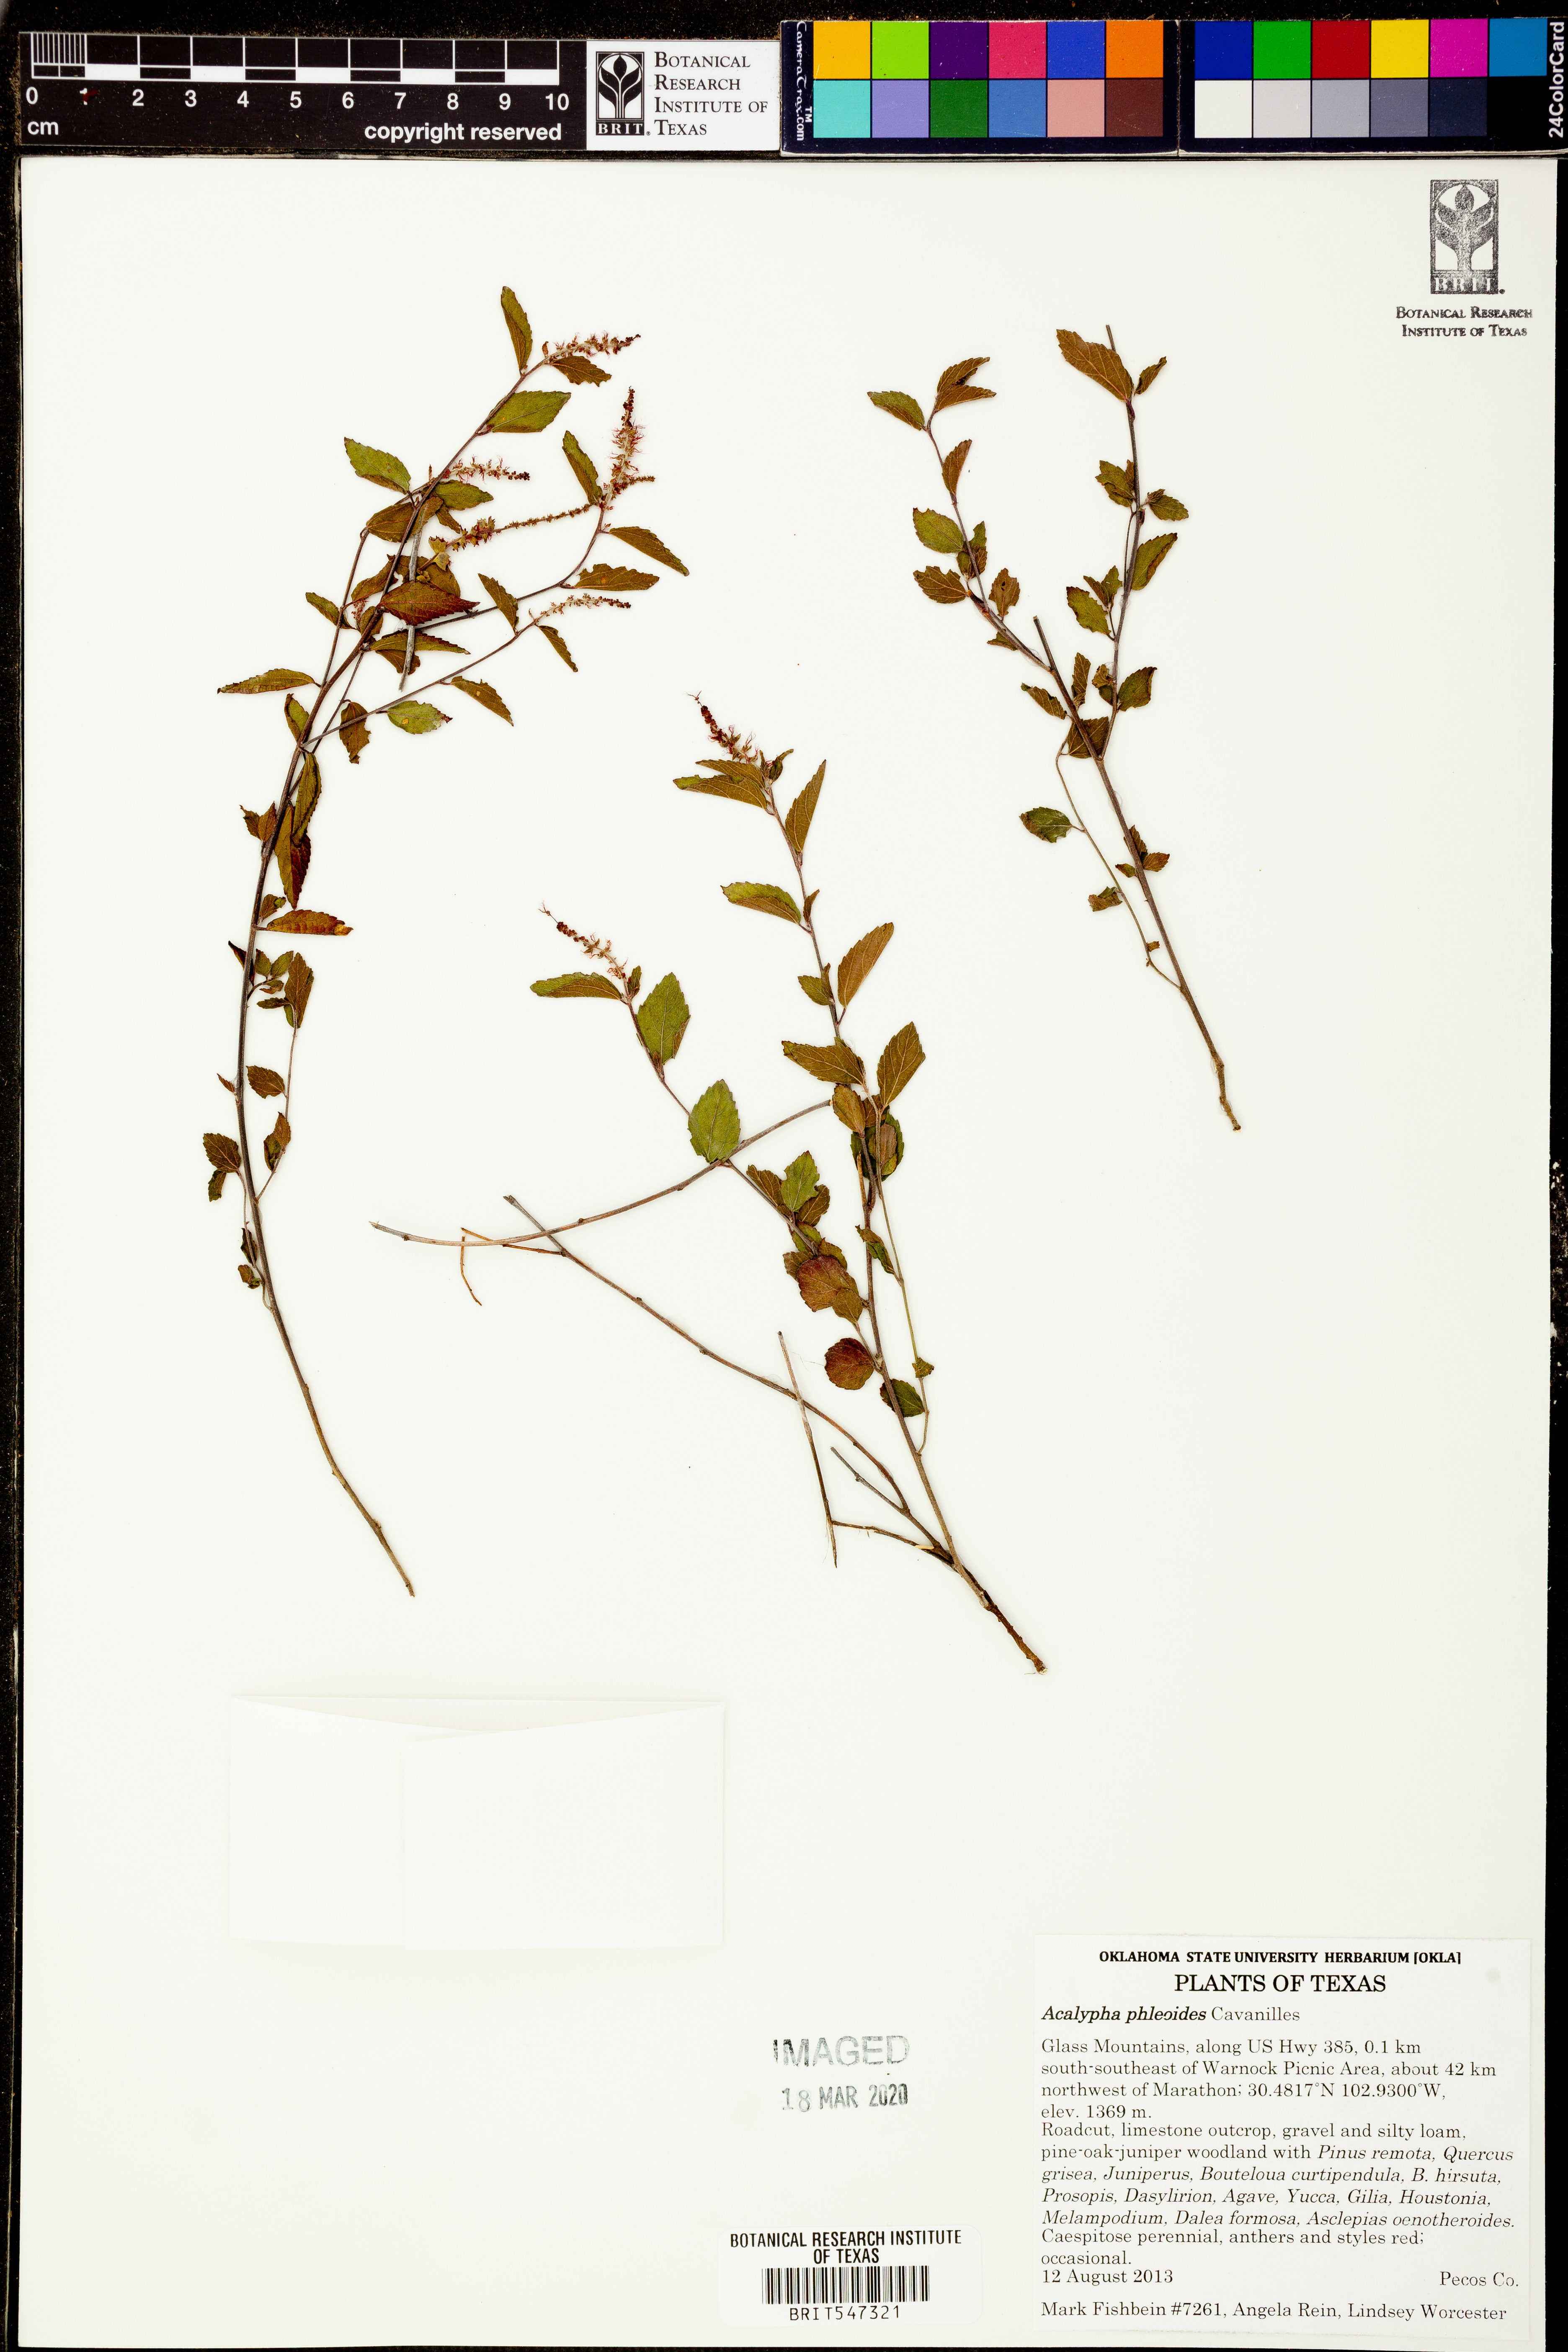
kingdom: Plantae
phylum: Tracheophyta
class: Magnoliopsida
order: Malpighiales
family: Euphorbiaceae
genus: Acalypha
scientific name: Acalypha phleoides
